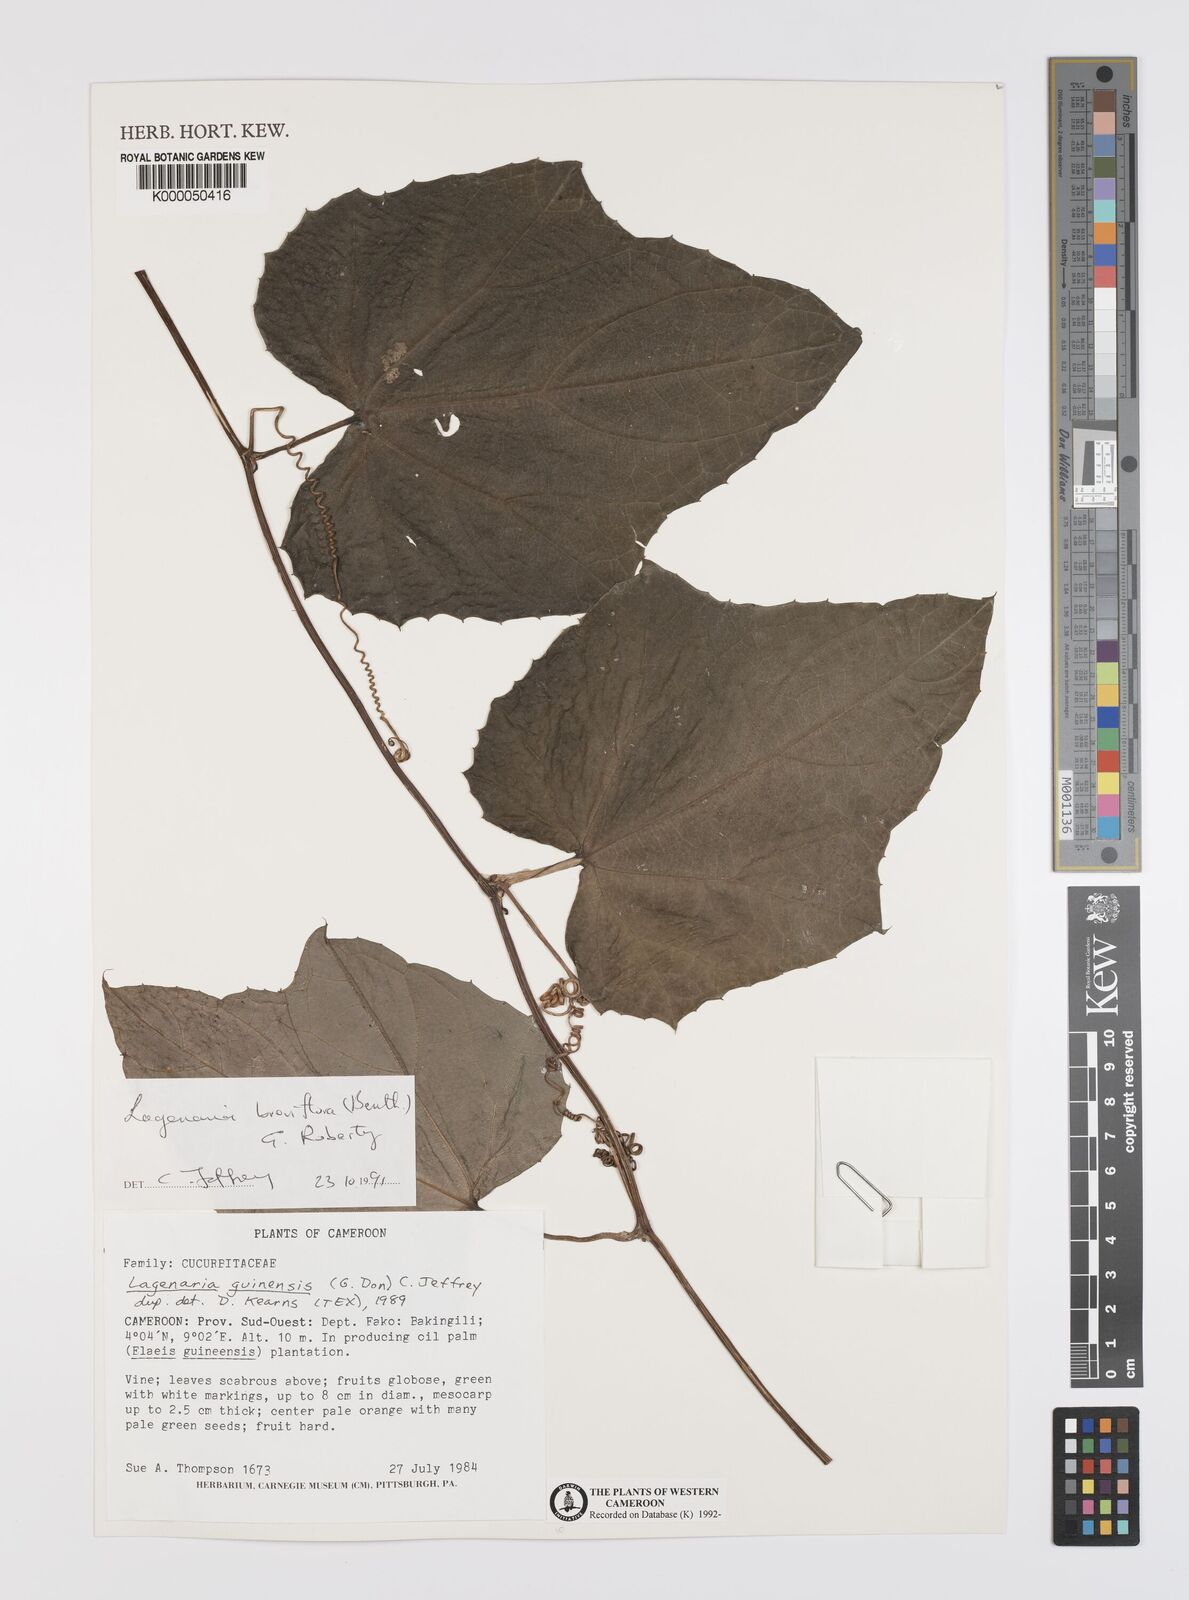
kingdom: Plantae
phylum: Tracheophyta
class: Magnoliopsida
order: Cucurbitales
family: Cucurbitaceae
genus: Lagenaria
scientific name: Lagenaria breviflora
